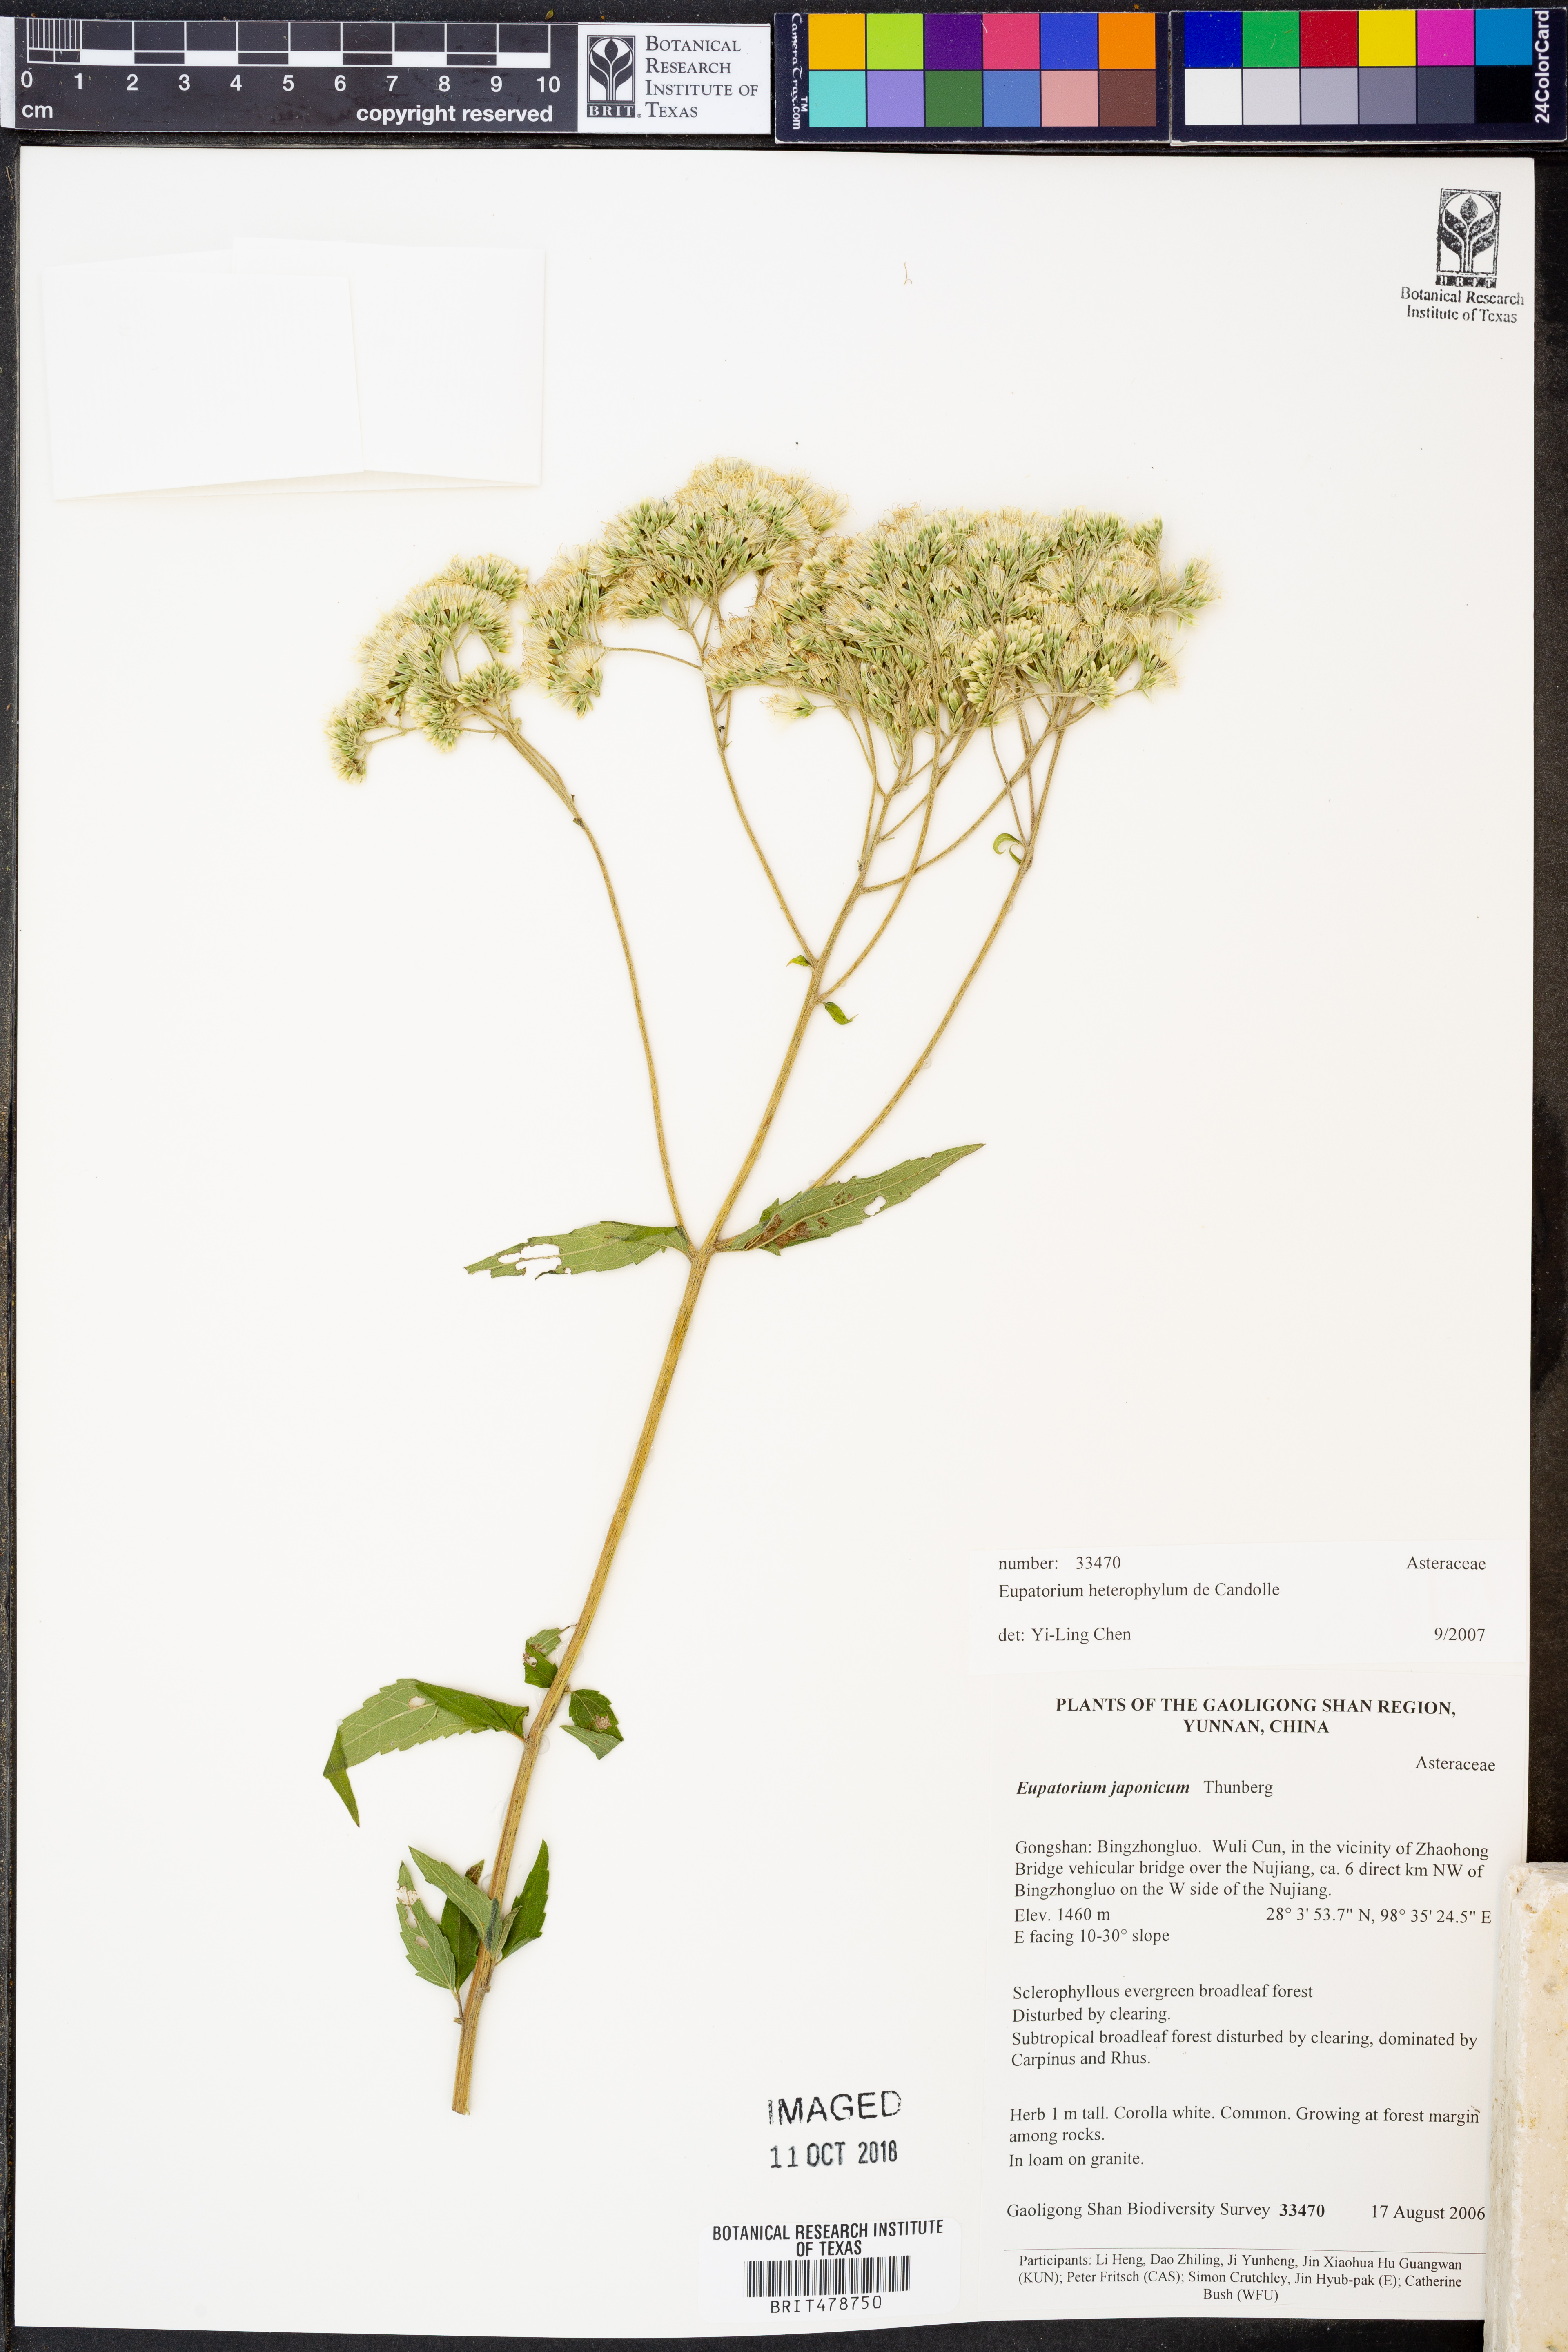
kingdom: Plantae
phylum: Tracheophyta
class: Magnoliopsida
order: Asterales
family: Asteraceae
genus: Eupatorium
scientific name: Eupatorium heterophyllum
